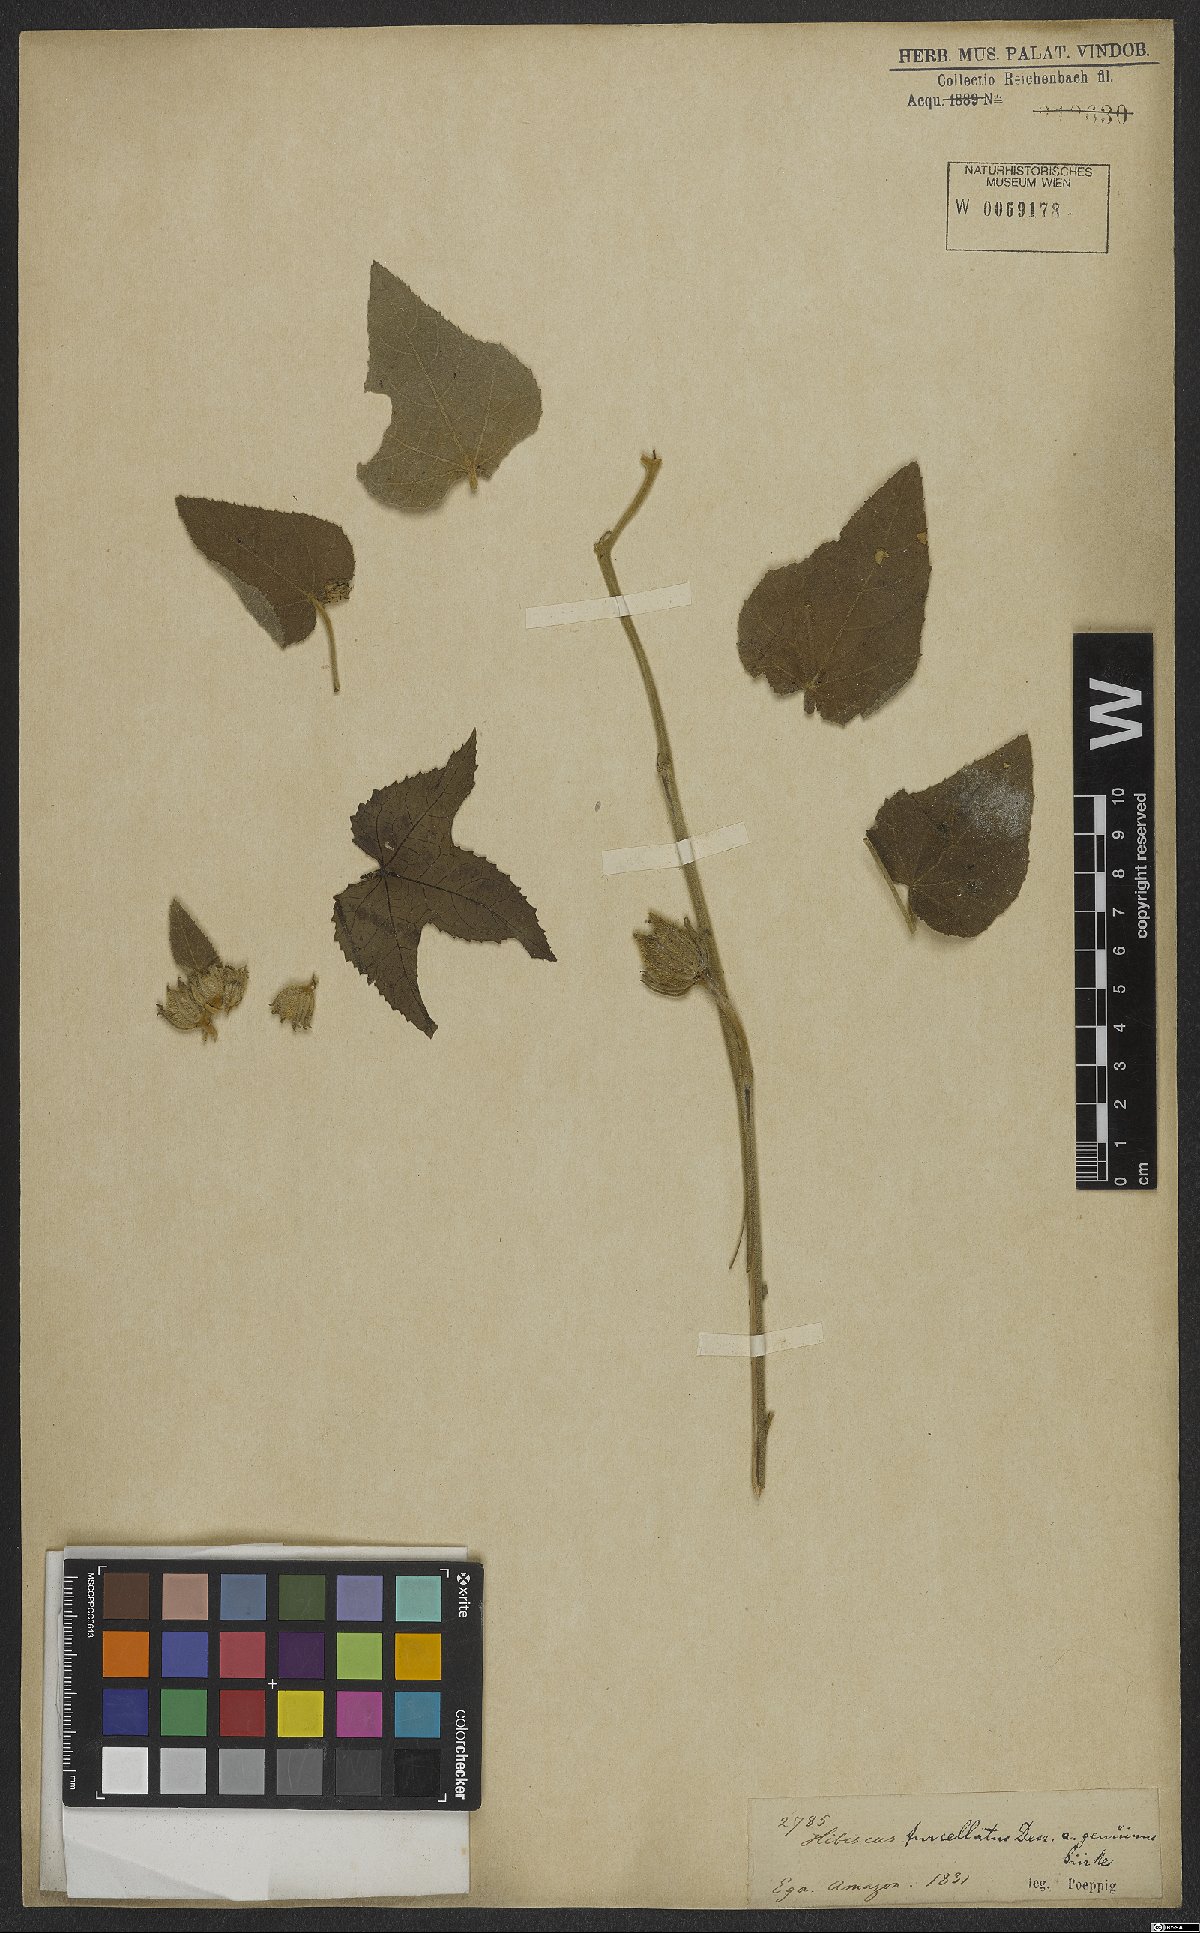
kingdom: Plantae
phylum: Tracheophyta
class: Magnoliopsida
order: Malvales
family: Malvaceae
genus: Hibiscus
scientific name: Hibiscus furcellatus
